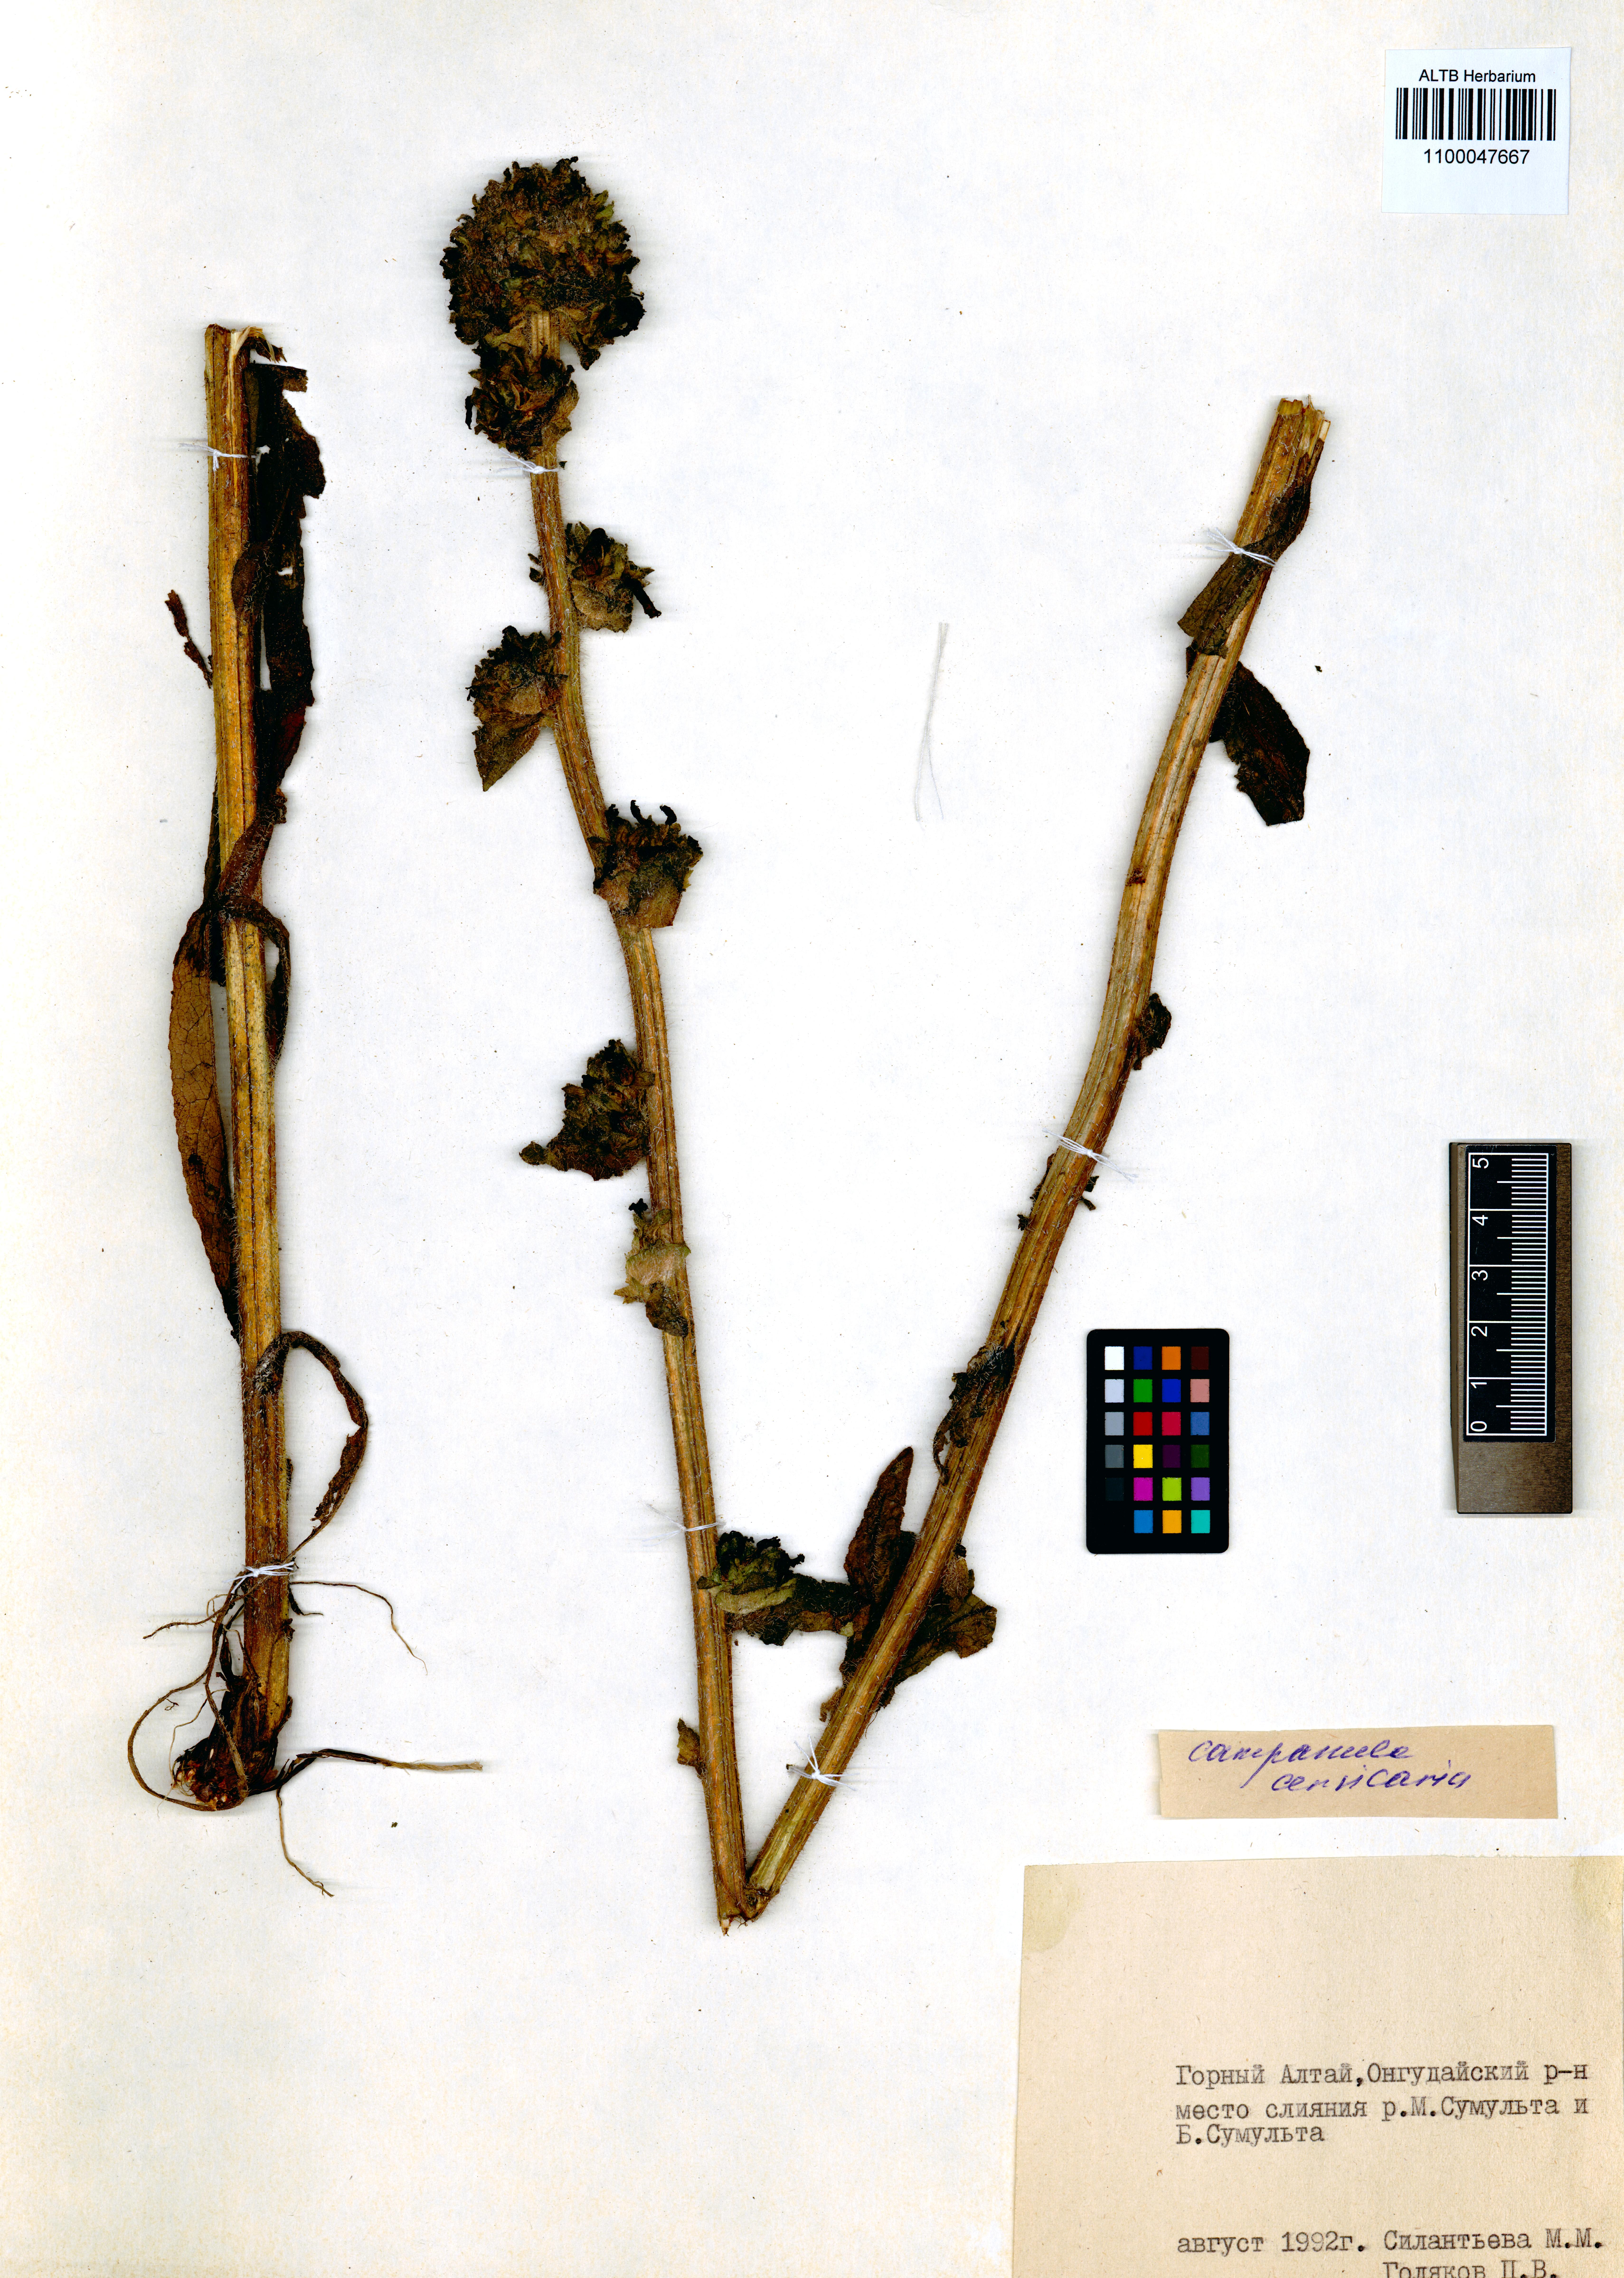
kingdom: Plantae
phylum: Tracheophyta
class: Magnoliopsida
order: Asterales
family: Campanulaceae
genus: Campanula
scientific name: Campanula cervicaria
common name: Bristly bellflower
